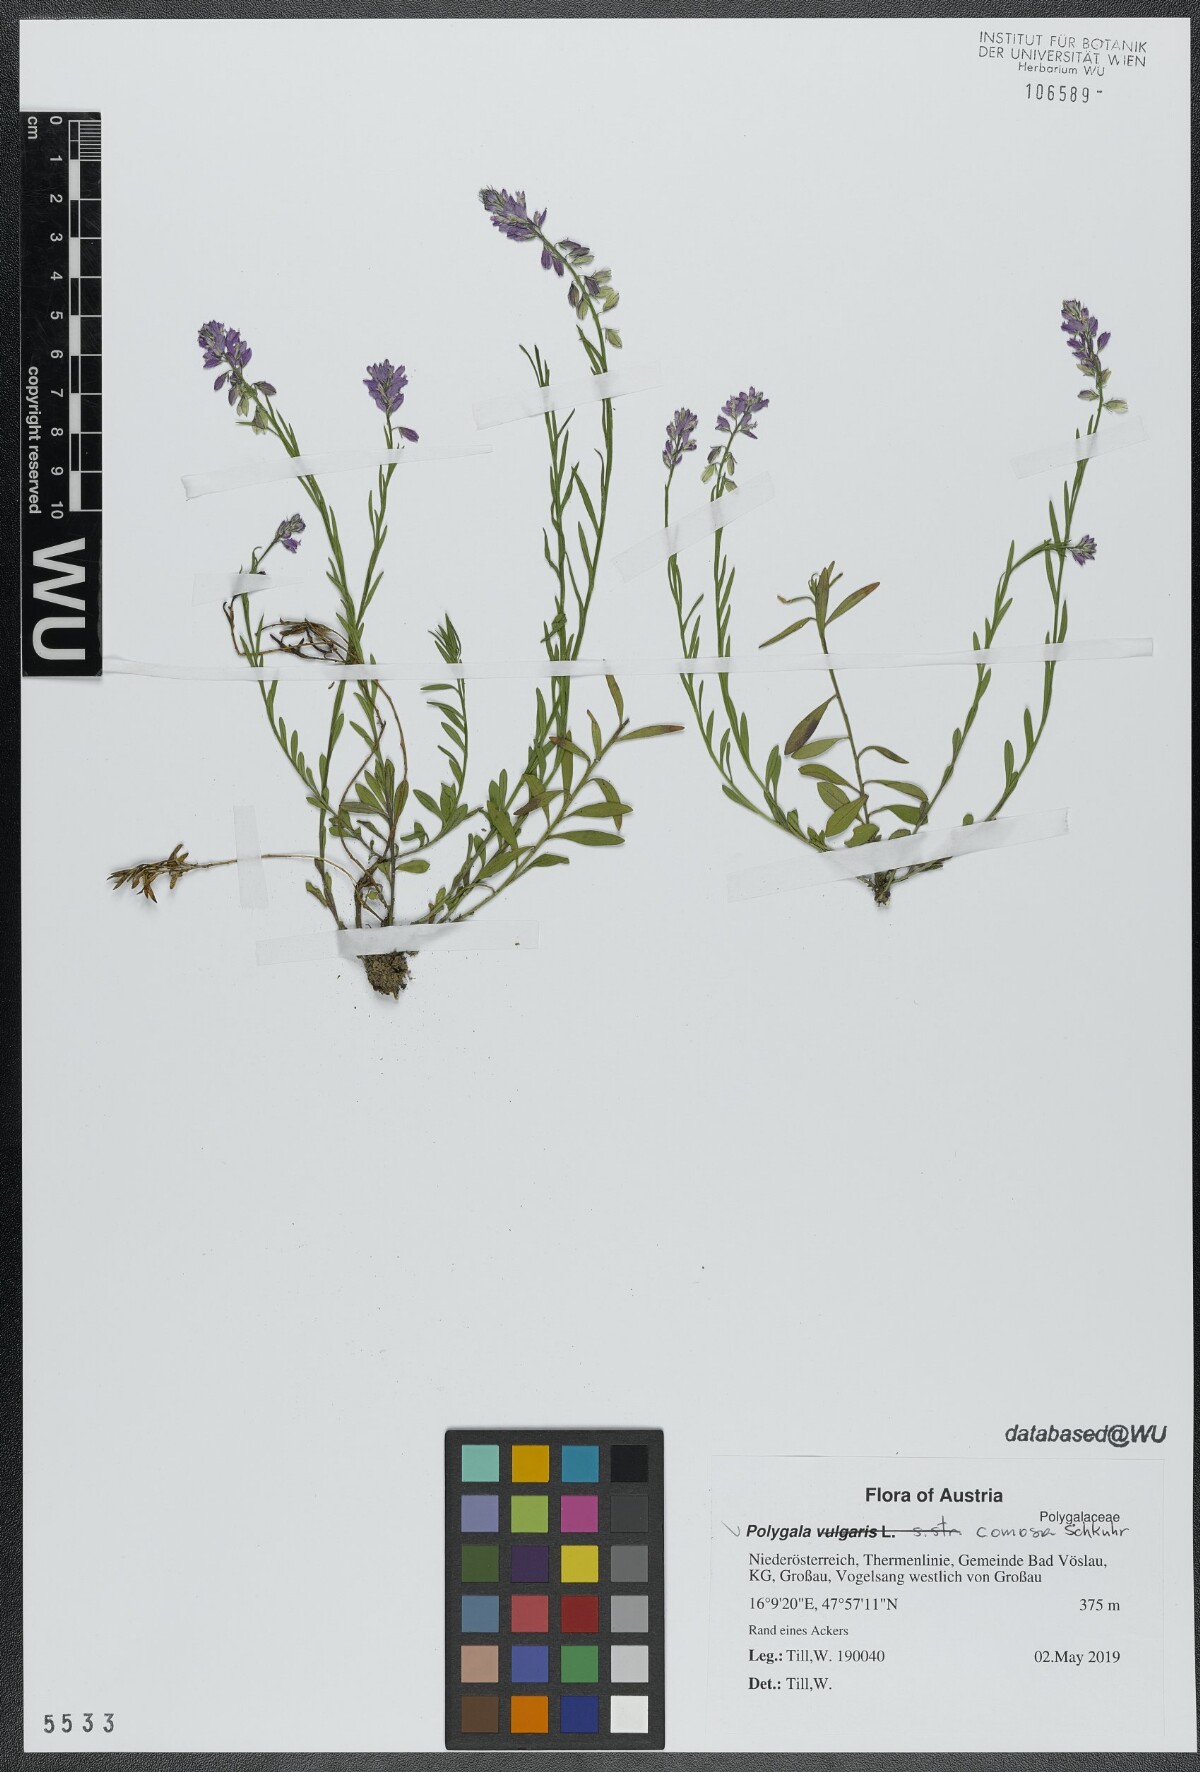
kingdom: Plantae
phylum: Tracheophyta
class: Magnoliopsida
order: Fabales
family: Polygalaceae
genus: Polygala
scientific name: Polygala comosa
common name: Tufted milkwort
